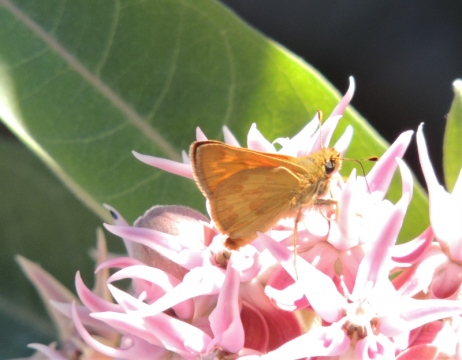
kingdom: Animalia
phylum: Arthropoda
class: Insecta
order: Lepidoptera
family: Hesperiidae
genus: Ochlodes
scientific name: Ochlodes sylvanoides
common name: Woodland Skipper
